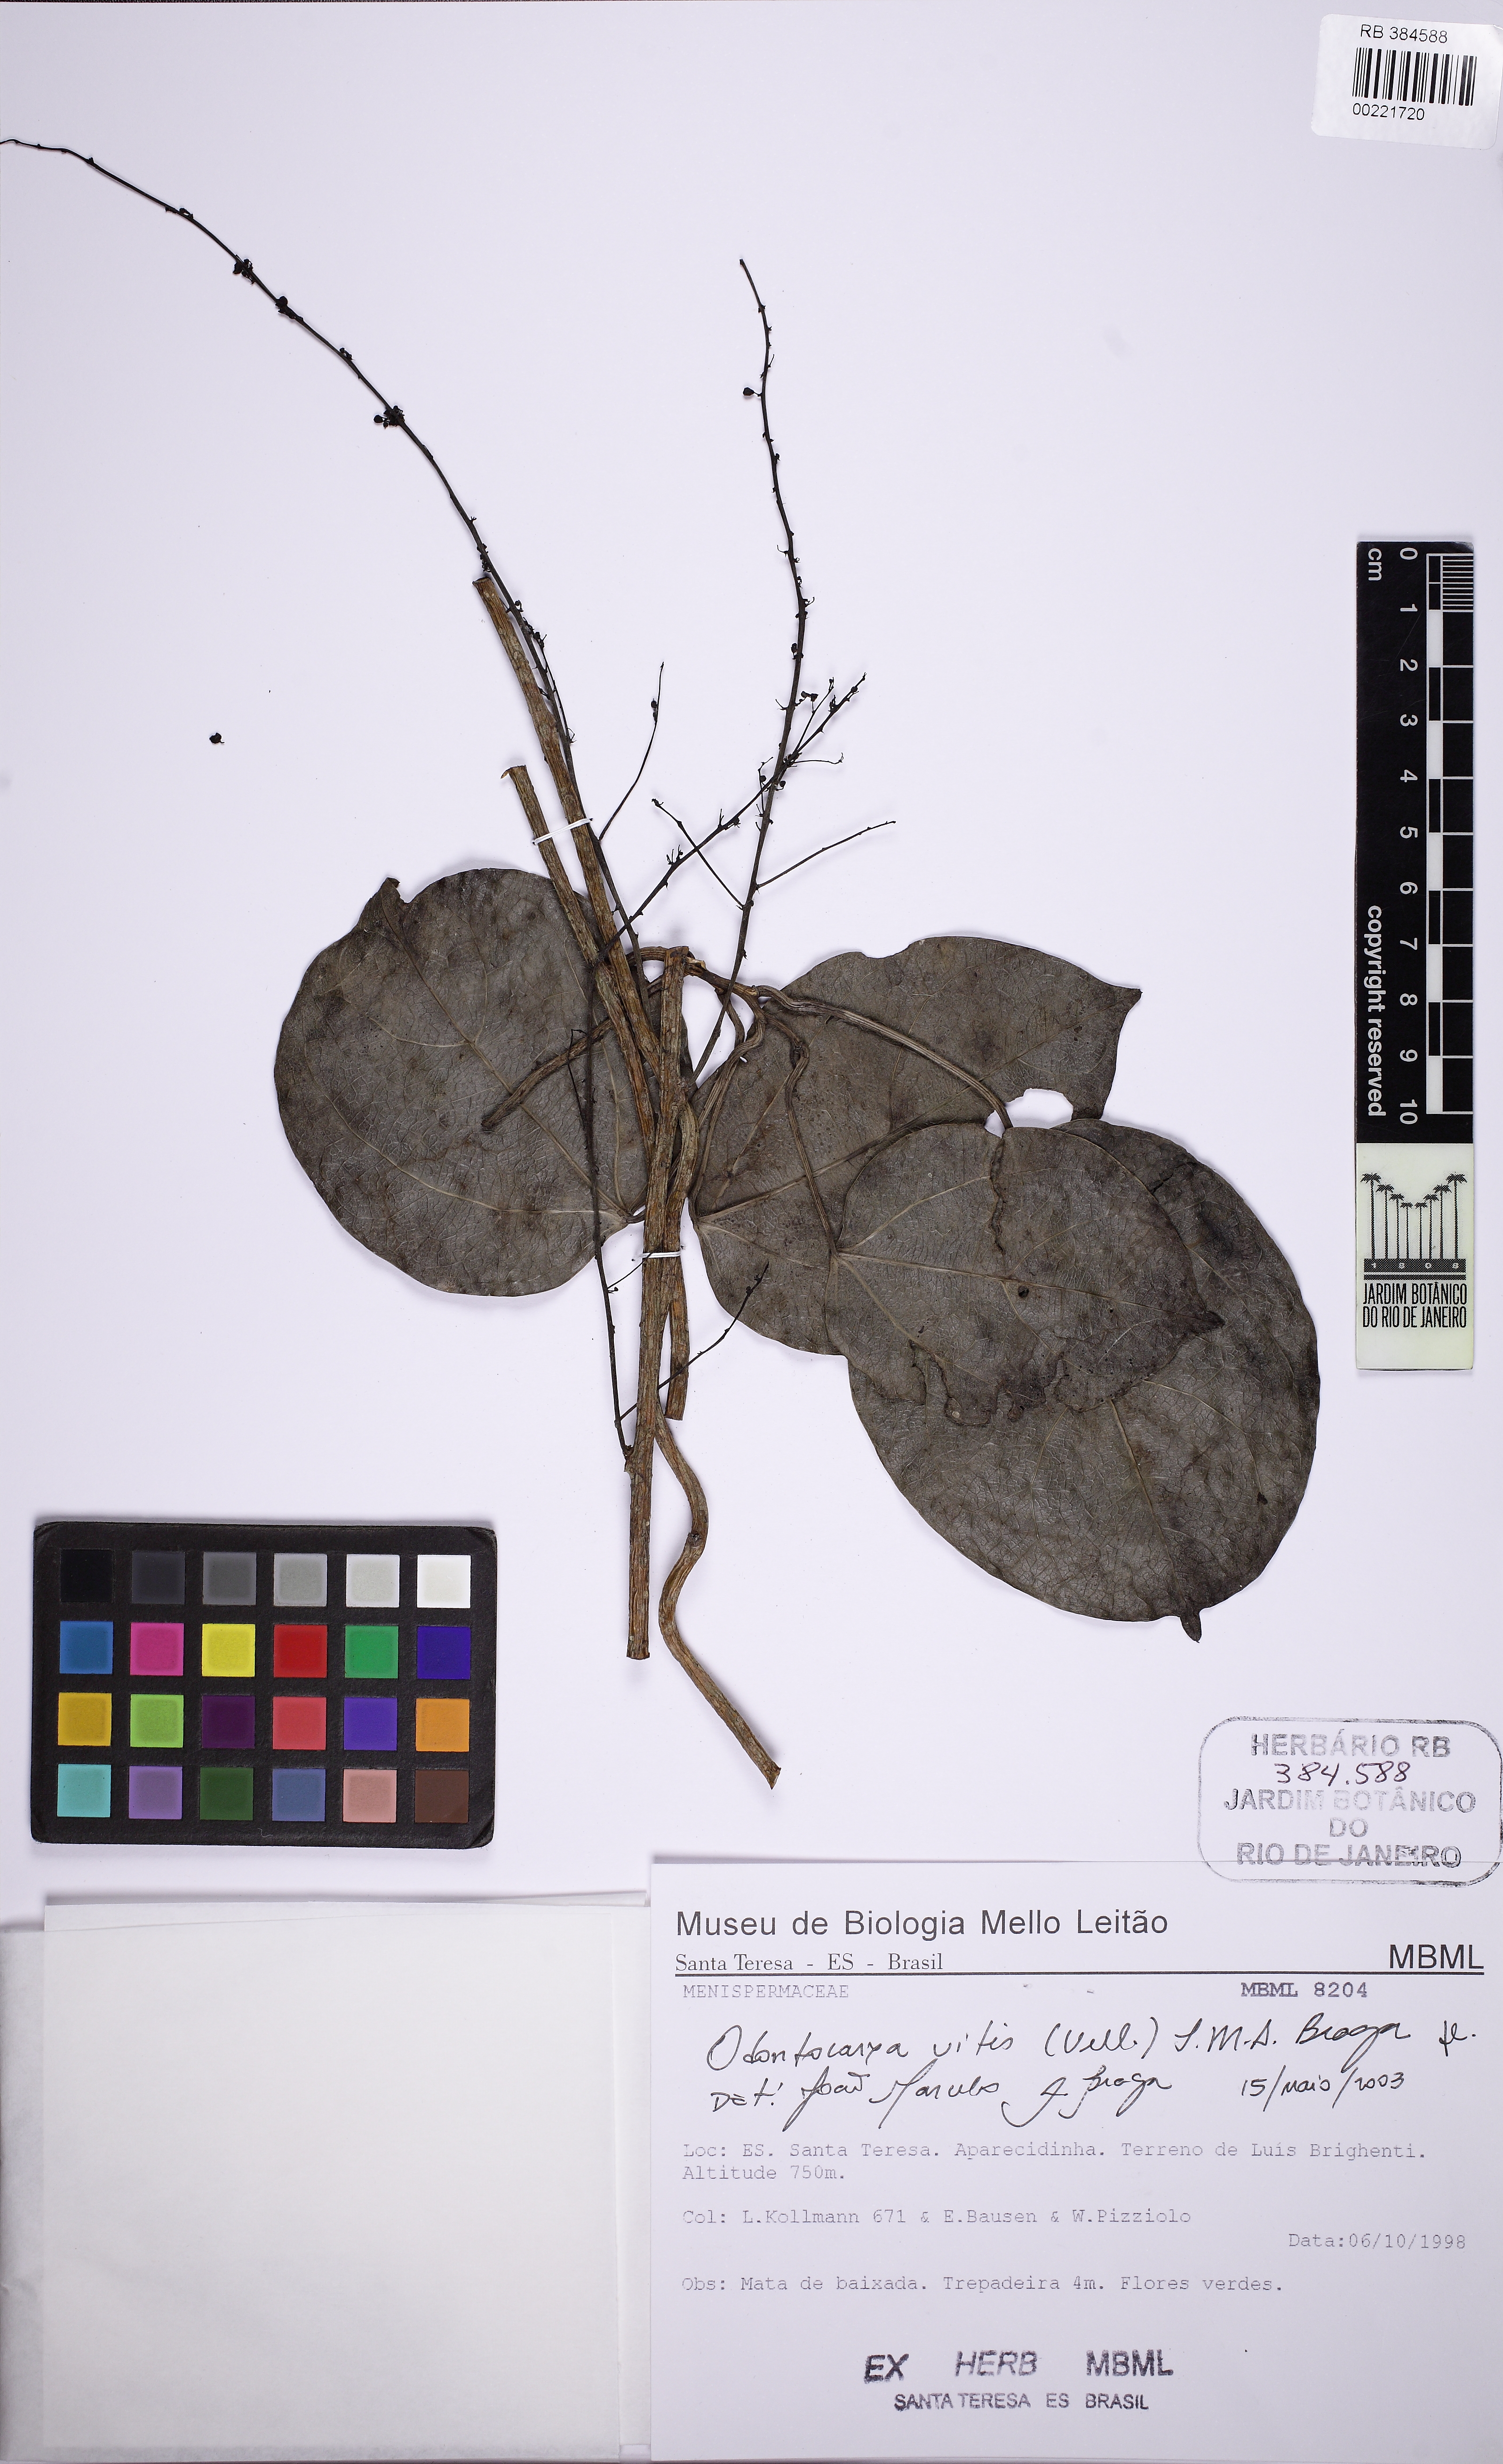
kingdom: Plantae
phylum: Tracheophyta
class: Magnoliopsida
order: Ranunculales
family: Menispermaceae
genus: Odontocarya
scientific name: Odontocarya vitis
